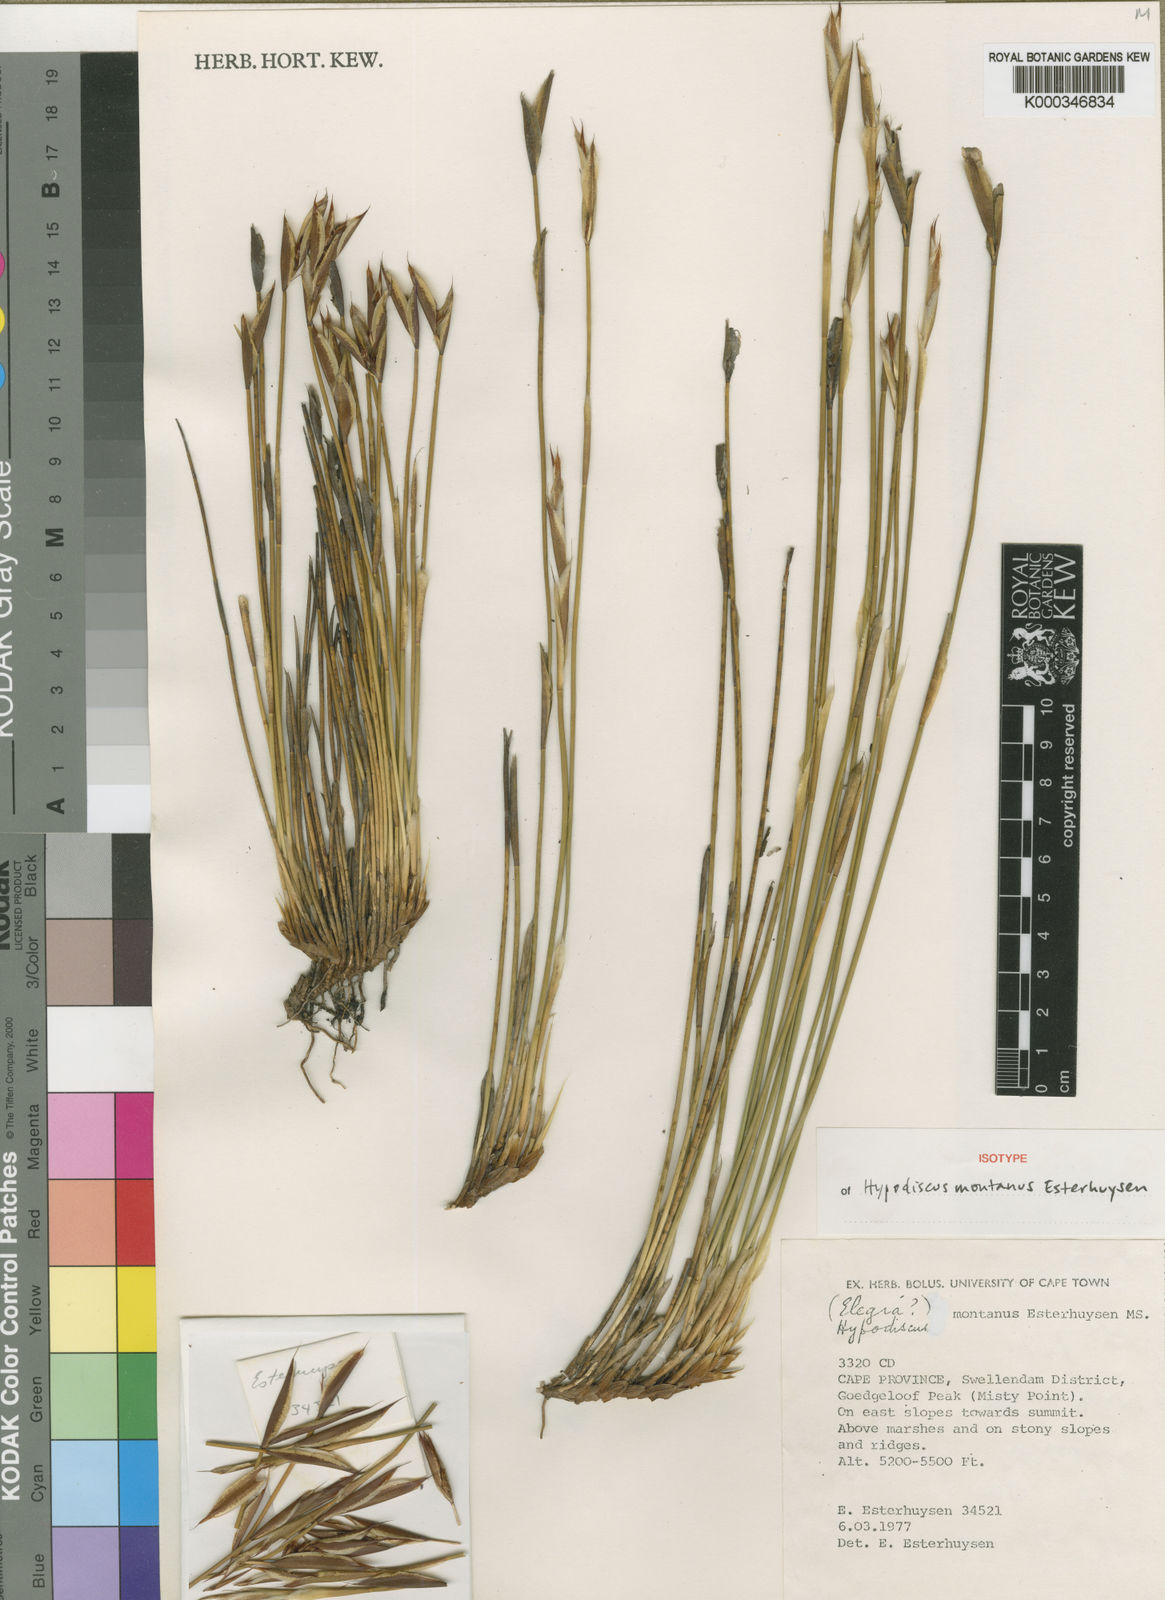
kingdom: Plantae
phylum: Tracheophyta
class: Liliopsida
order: Poales
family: Restionaceae
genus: Hypodiscus
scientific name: Hypodiscus montanus
